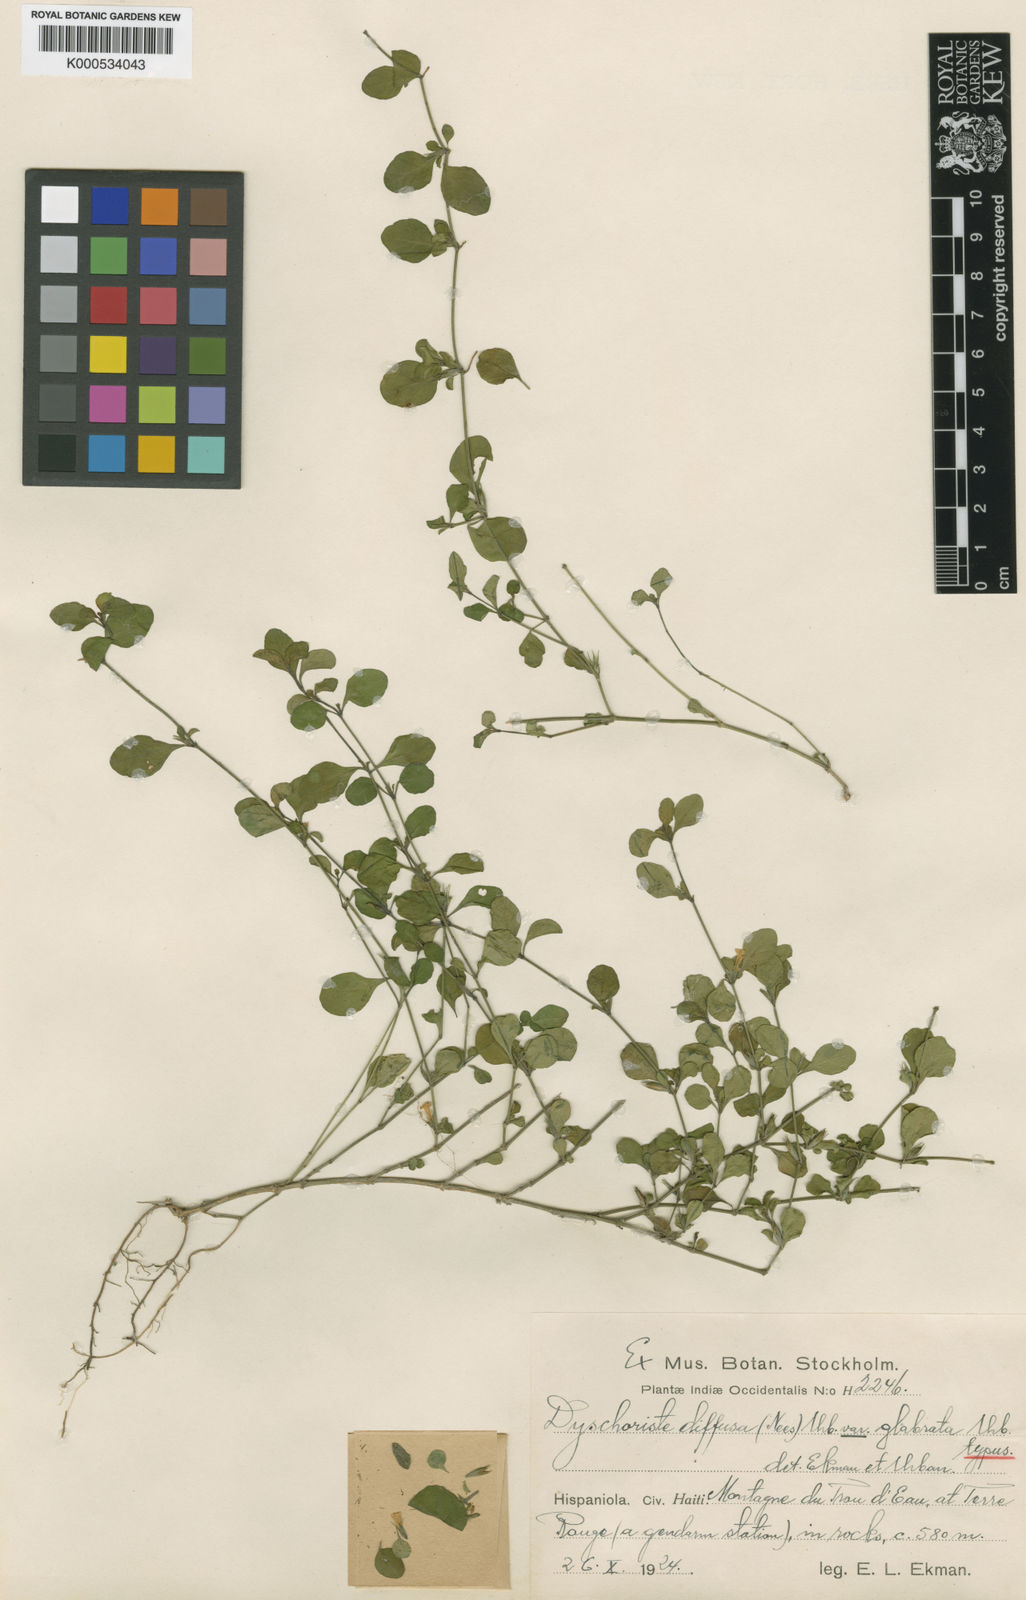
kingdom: Plantae
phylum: Tracheophyta
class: Magnoliopsida
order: Lamiales
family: Acanthaceae
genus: Dyschoriste
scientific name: Dyschoriste diffusa
